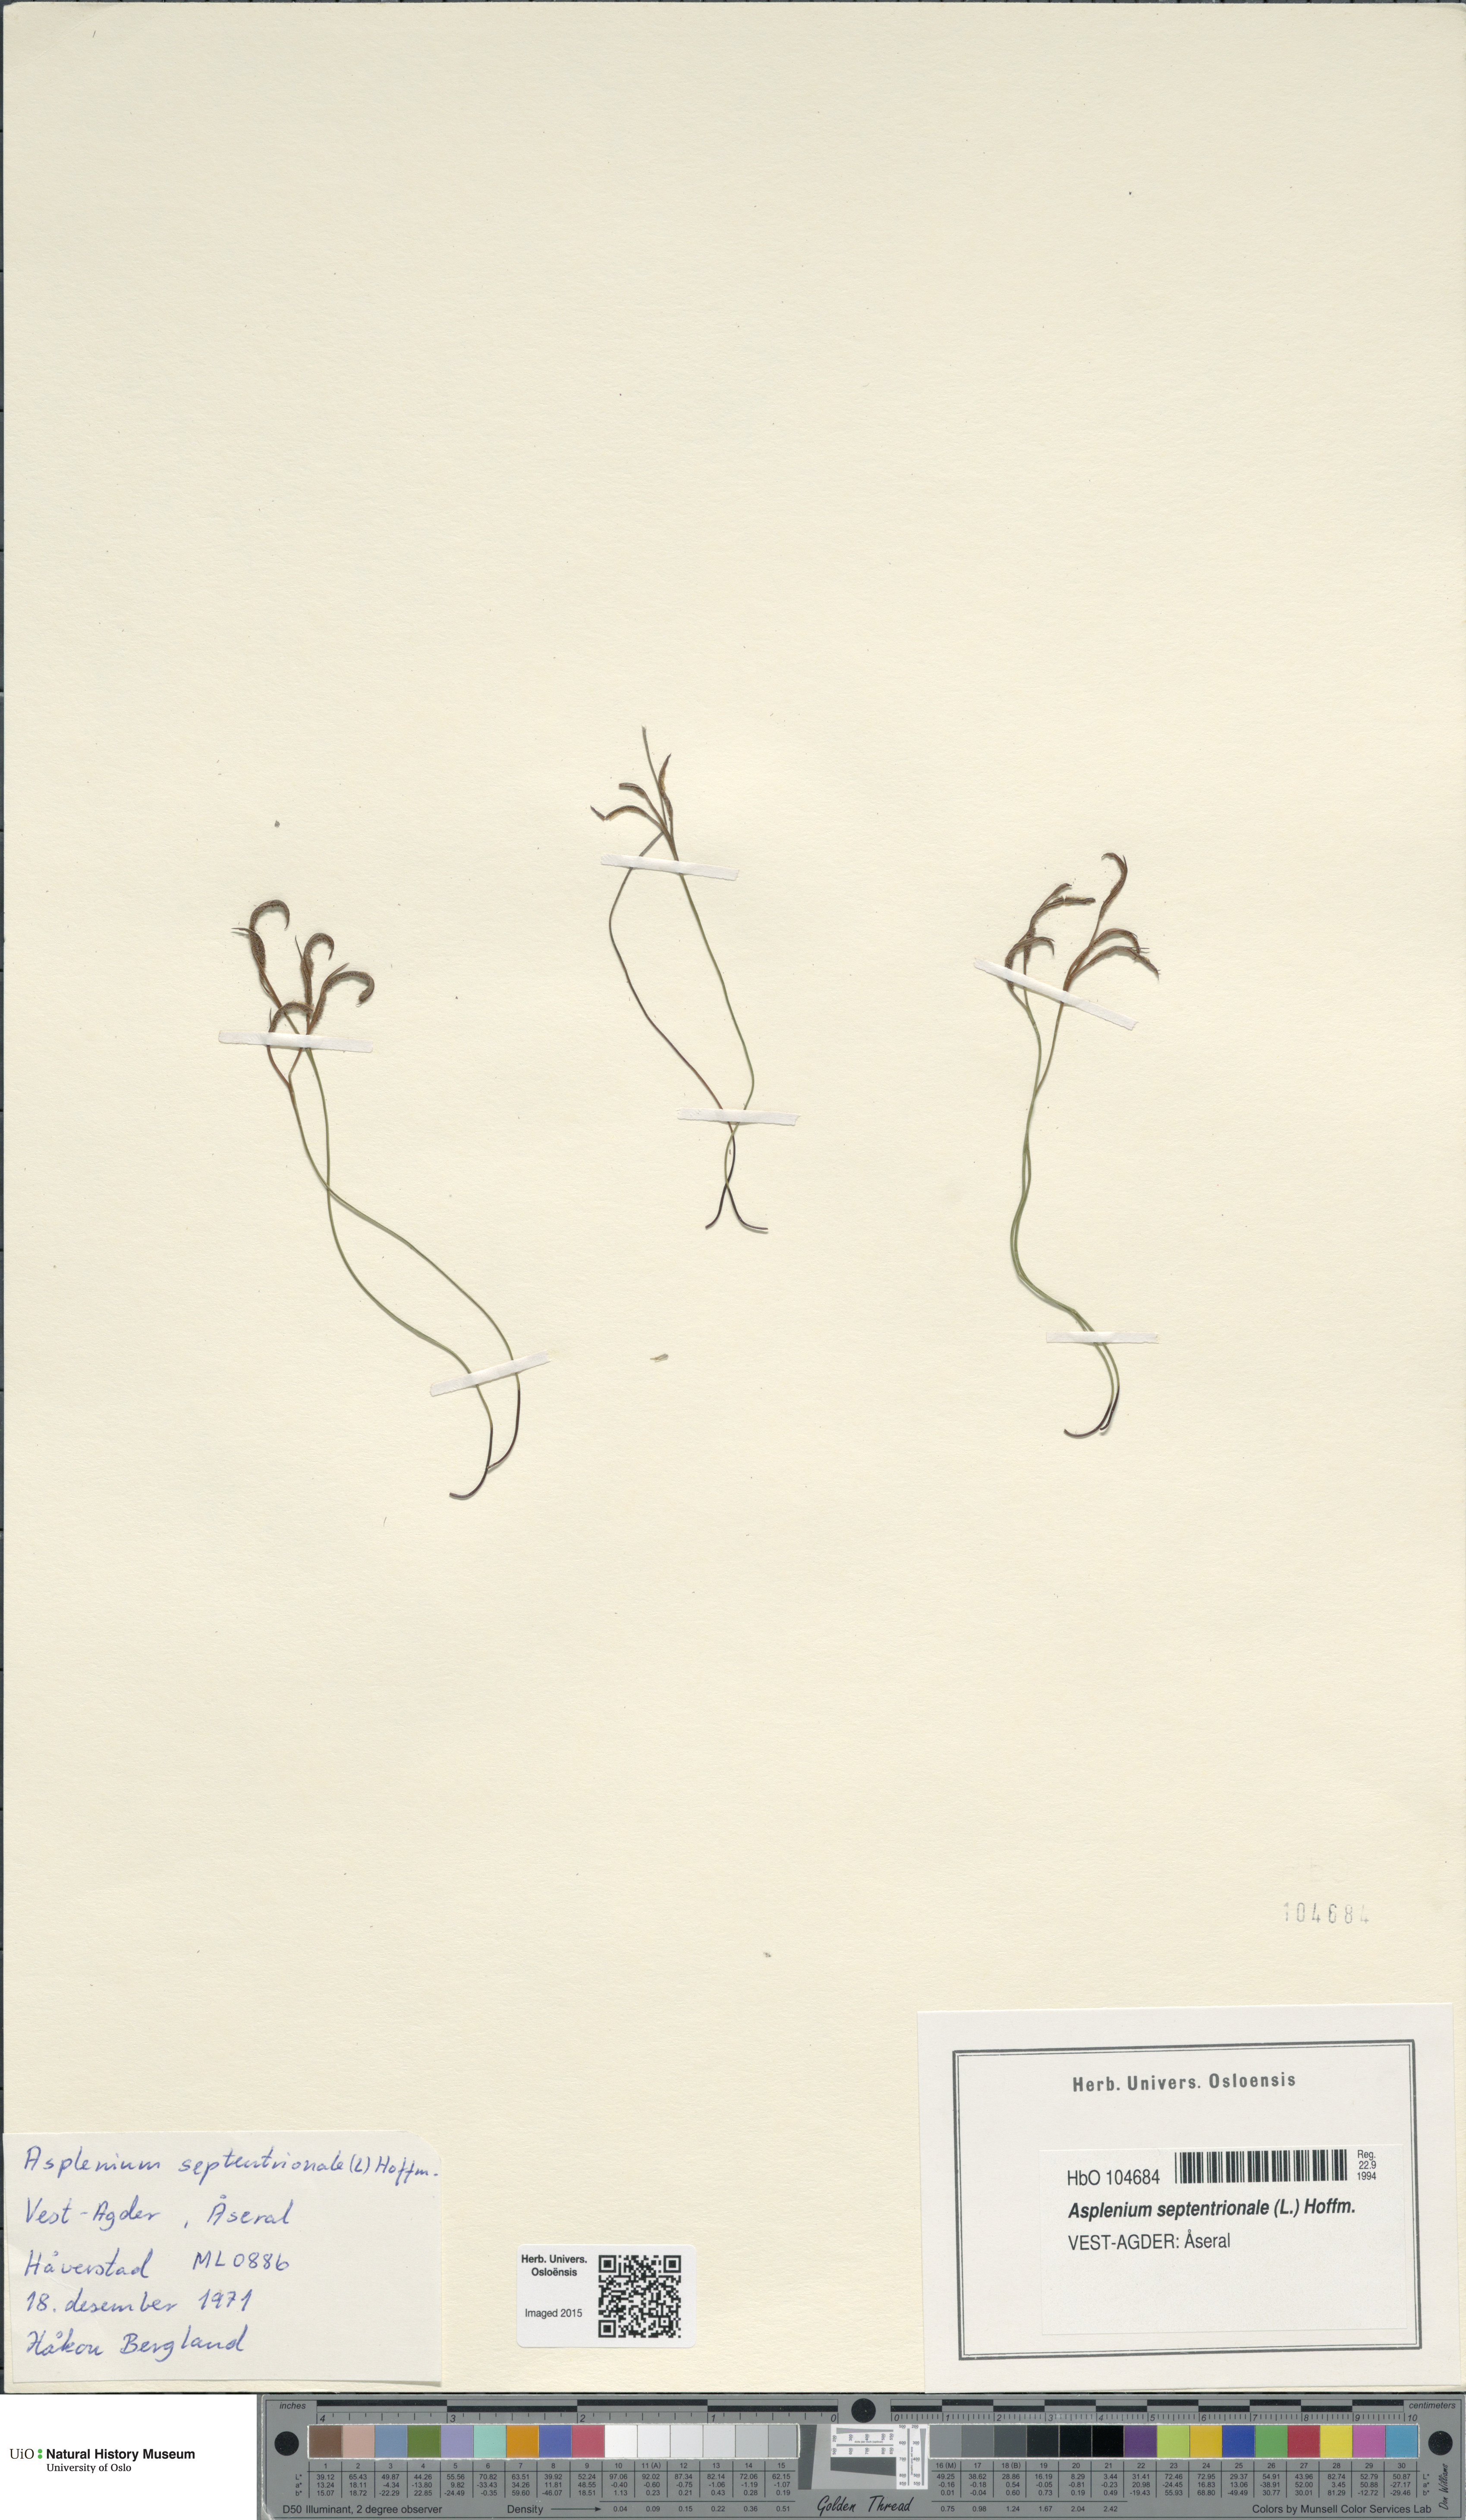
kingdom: Plantae
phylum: Tracheophyta
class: Polypodiopsida
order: Polypodiales
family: Aspleniaceae
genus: Asplenium
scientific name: Asplenium septentrionale
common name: Forked spleenwort
